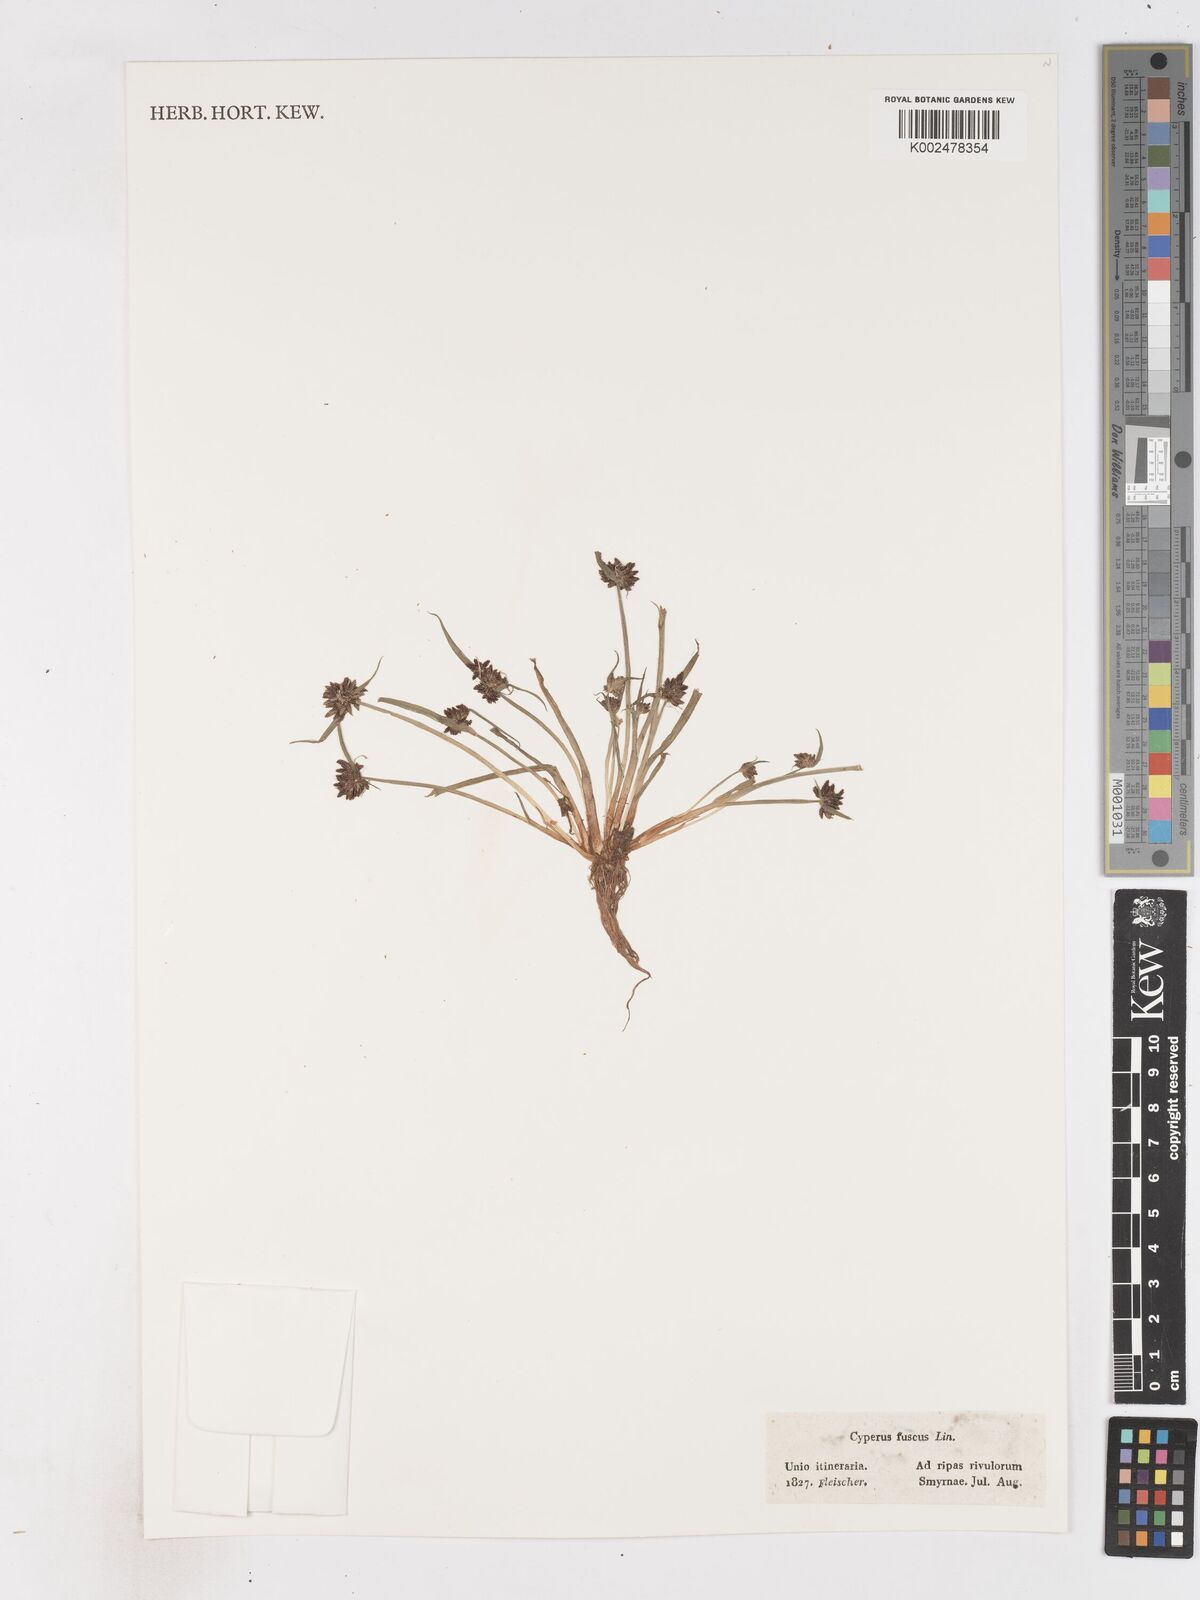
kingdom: Plantae
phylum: Tracheophyta
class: Liliopsida
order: Poales
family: Cyperaceae
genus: Cyperus
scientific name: Cyperus fuscus
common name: Brown galingale
